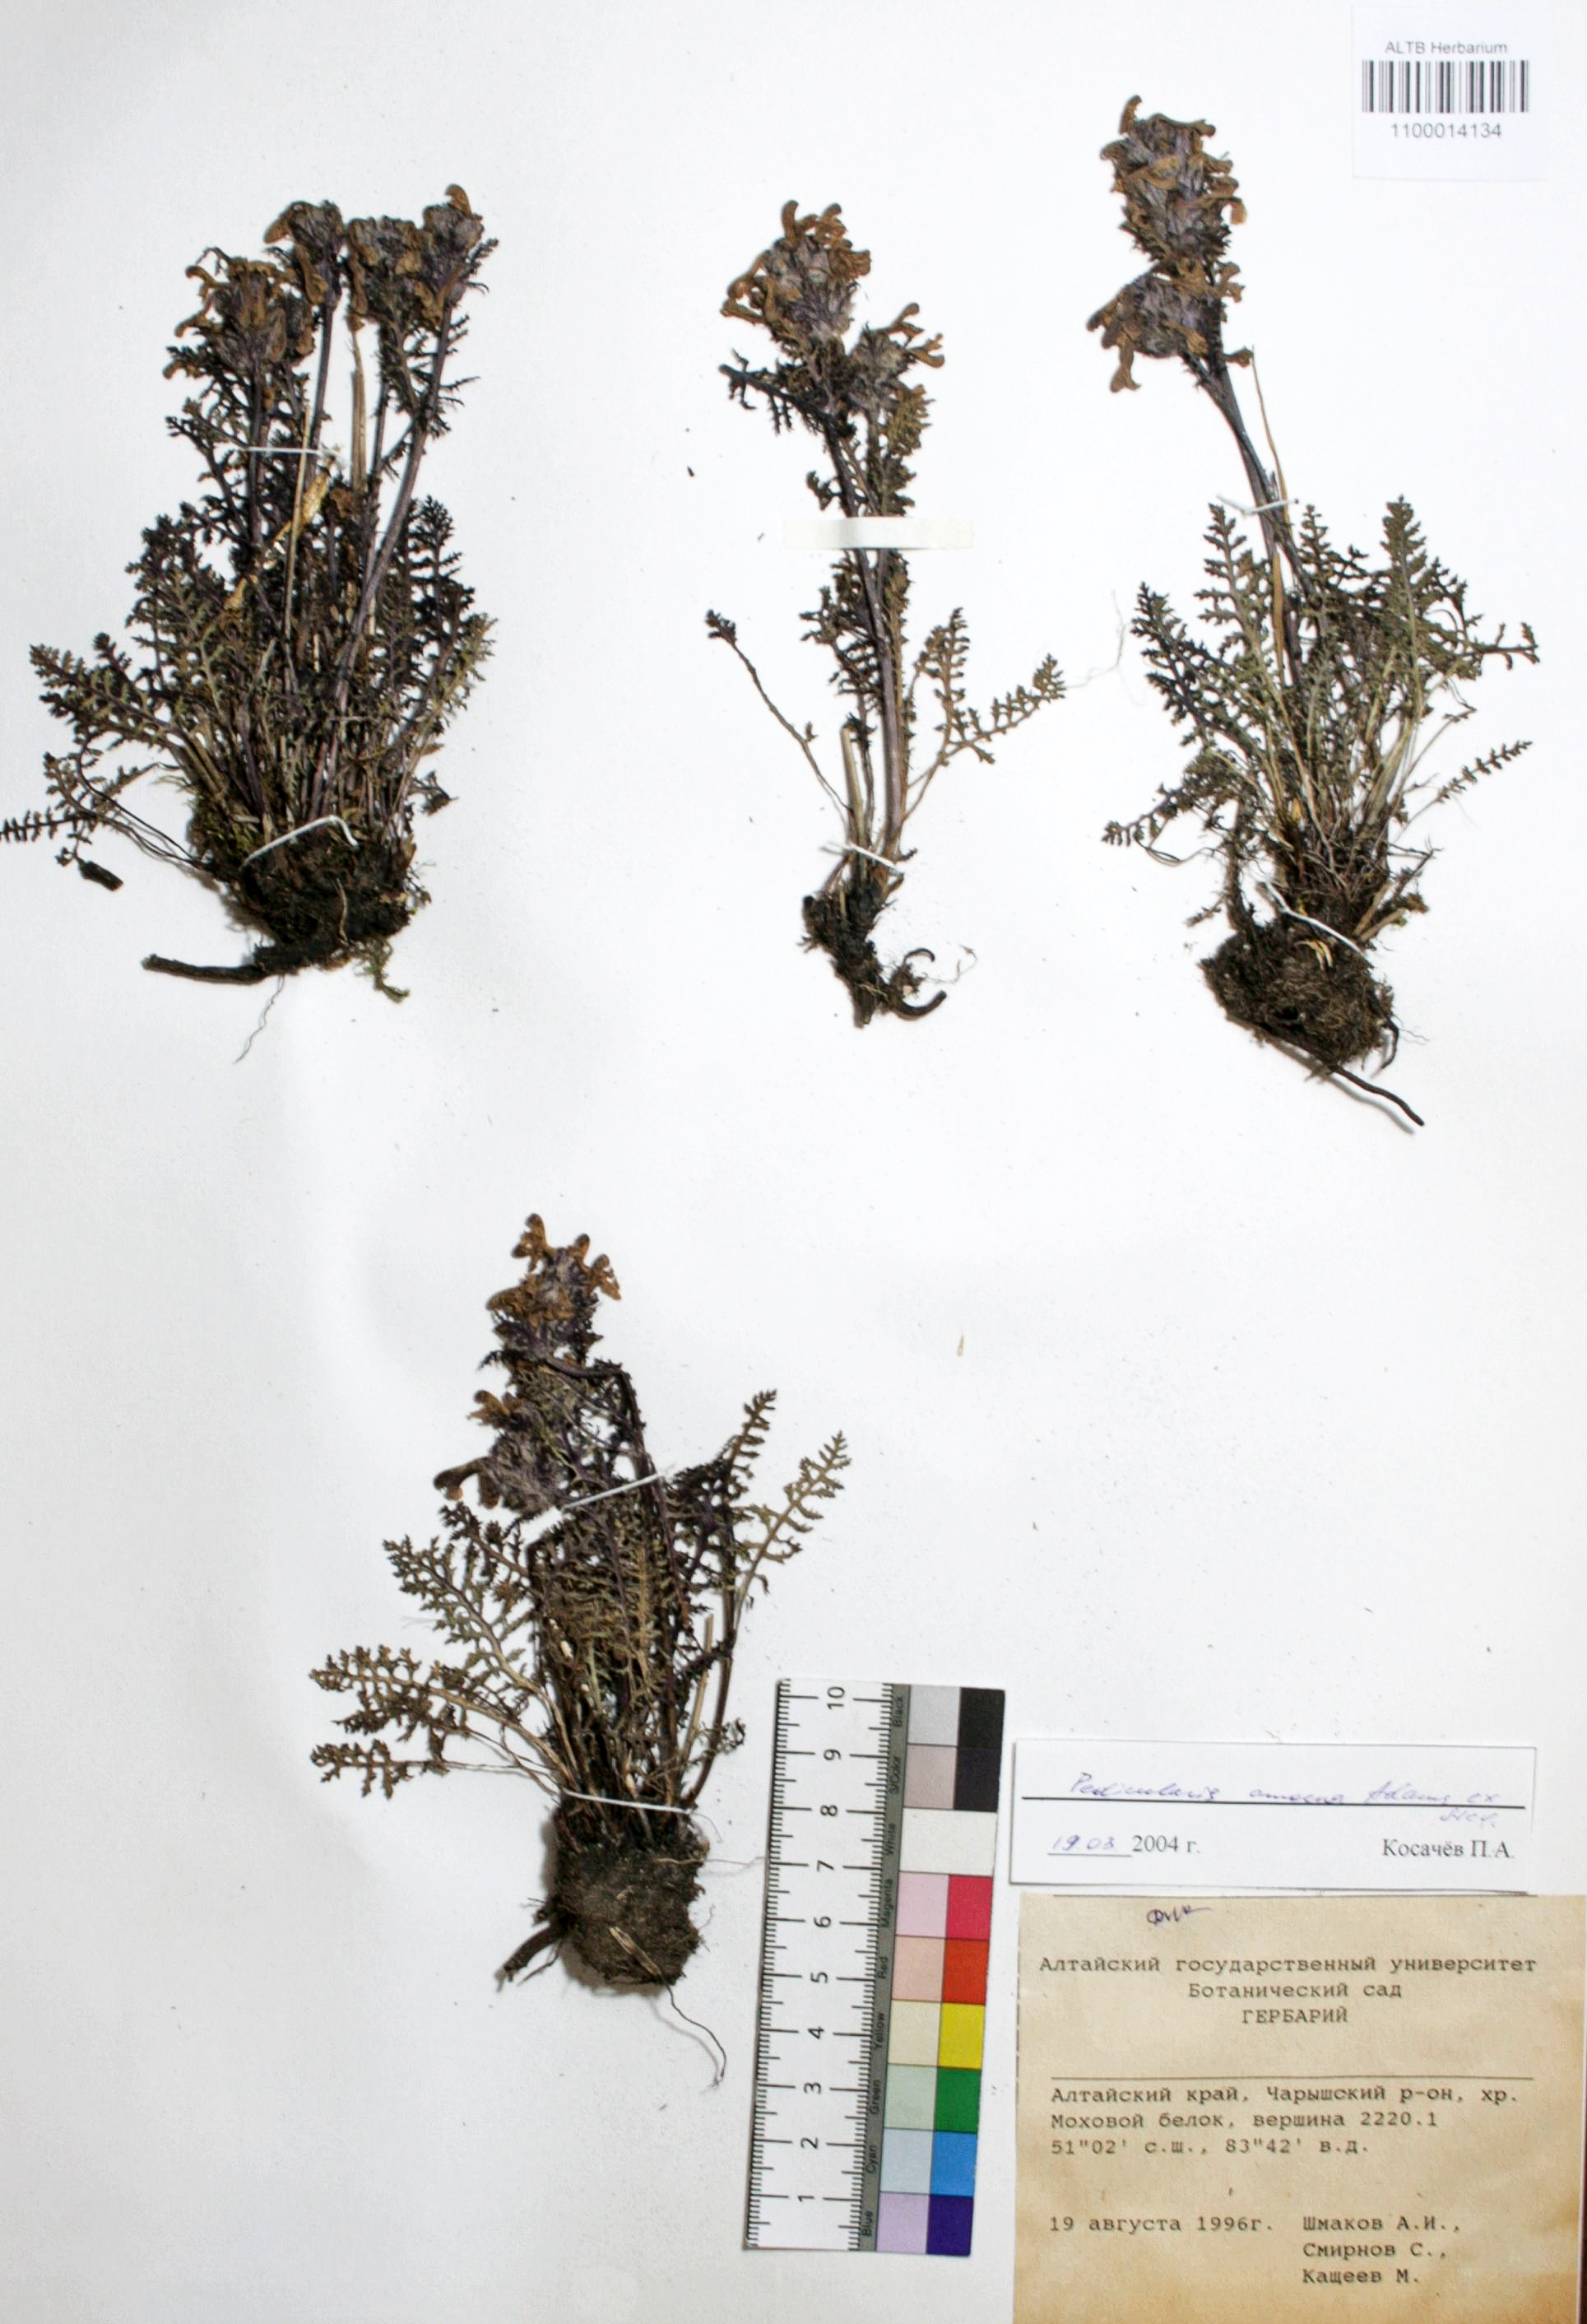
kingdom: Plantae
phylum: Tracheophyta
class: Magnoliopsida
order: Lamiales
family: Orobanchaceae
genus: Pedicularis
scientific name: Pedicularis amoena
